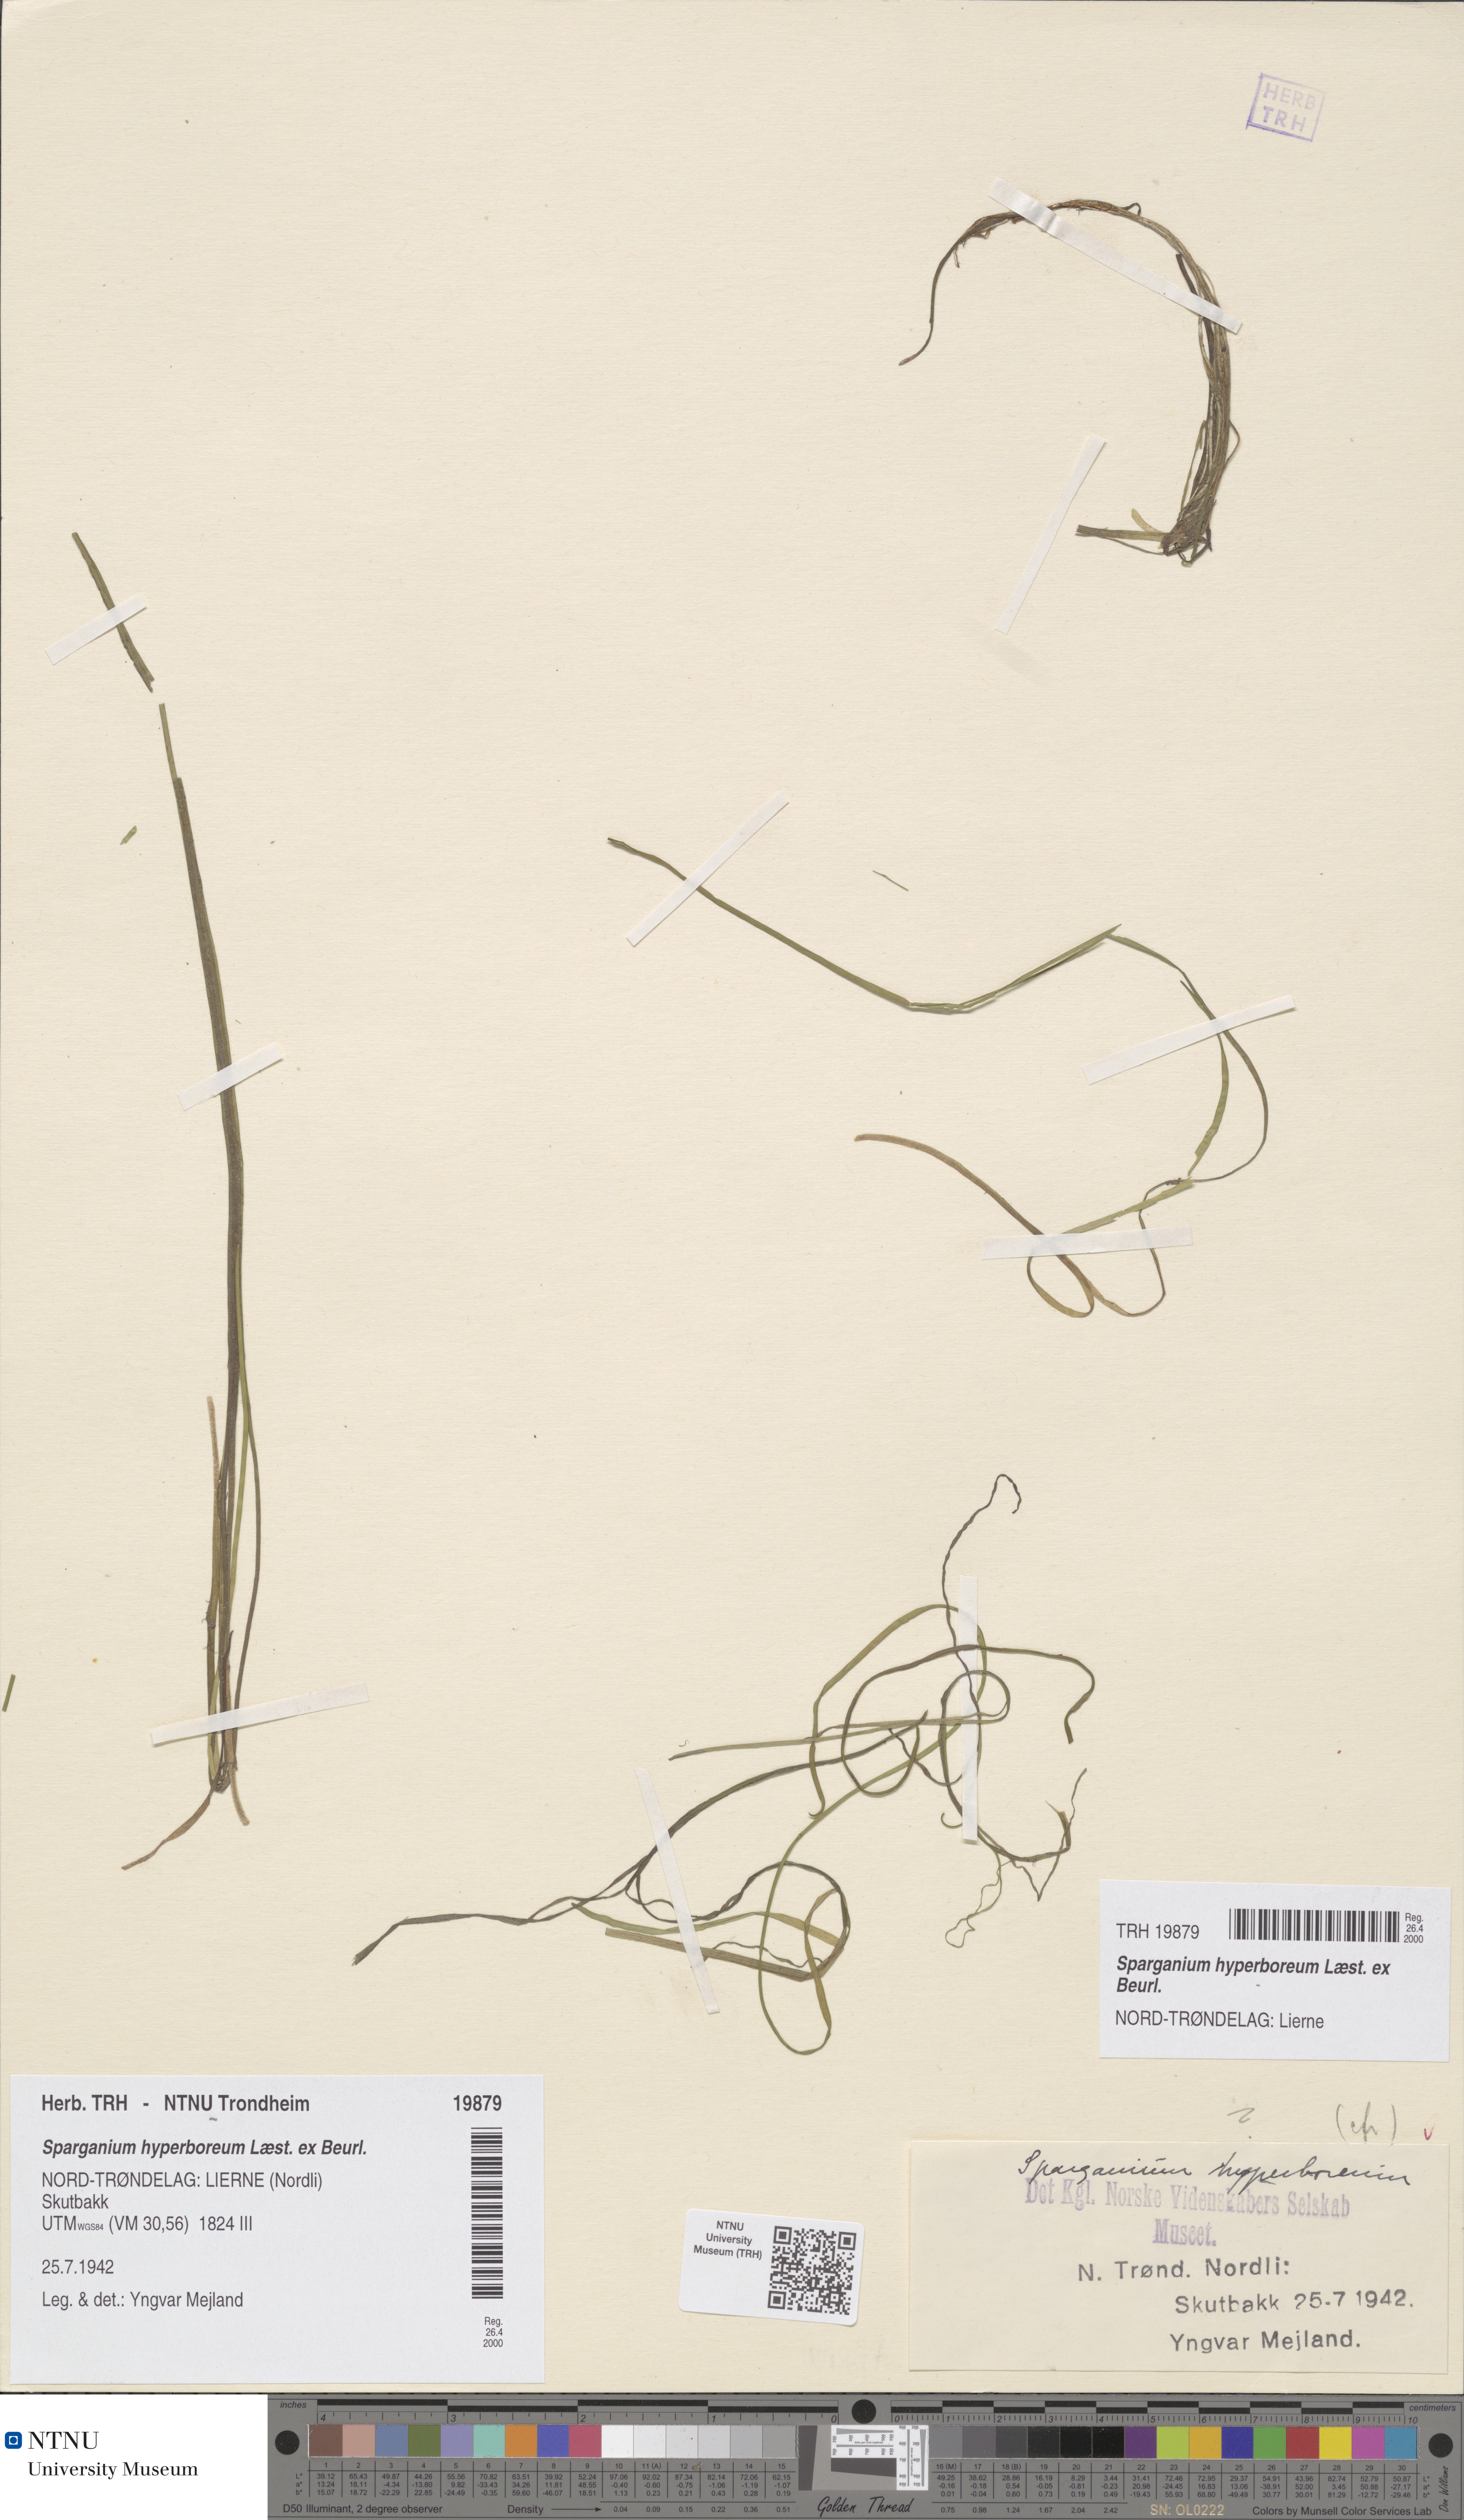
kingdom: Plantae
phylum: Tracheophyta
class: Liliopsida
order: Poales
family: Typhaceae
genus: Sparganium
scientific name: Sparganium hyperboreum
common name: Arctic burreed
